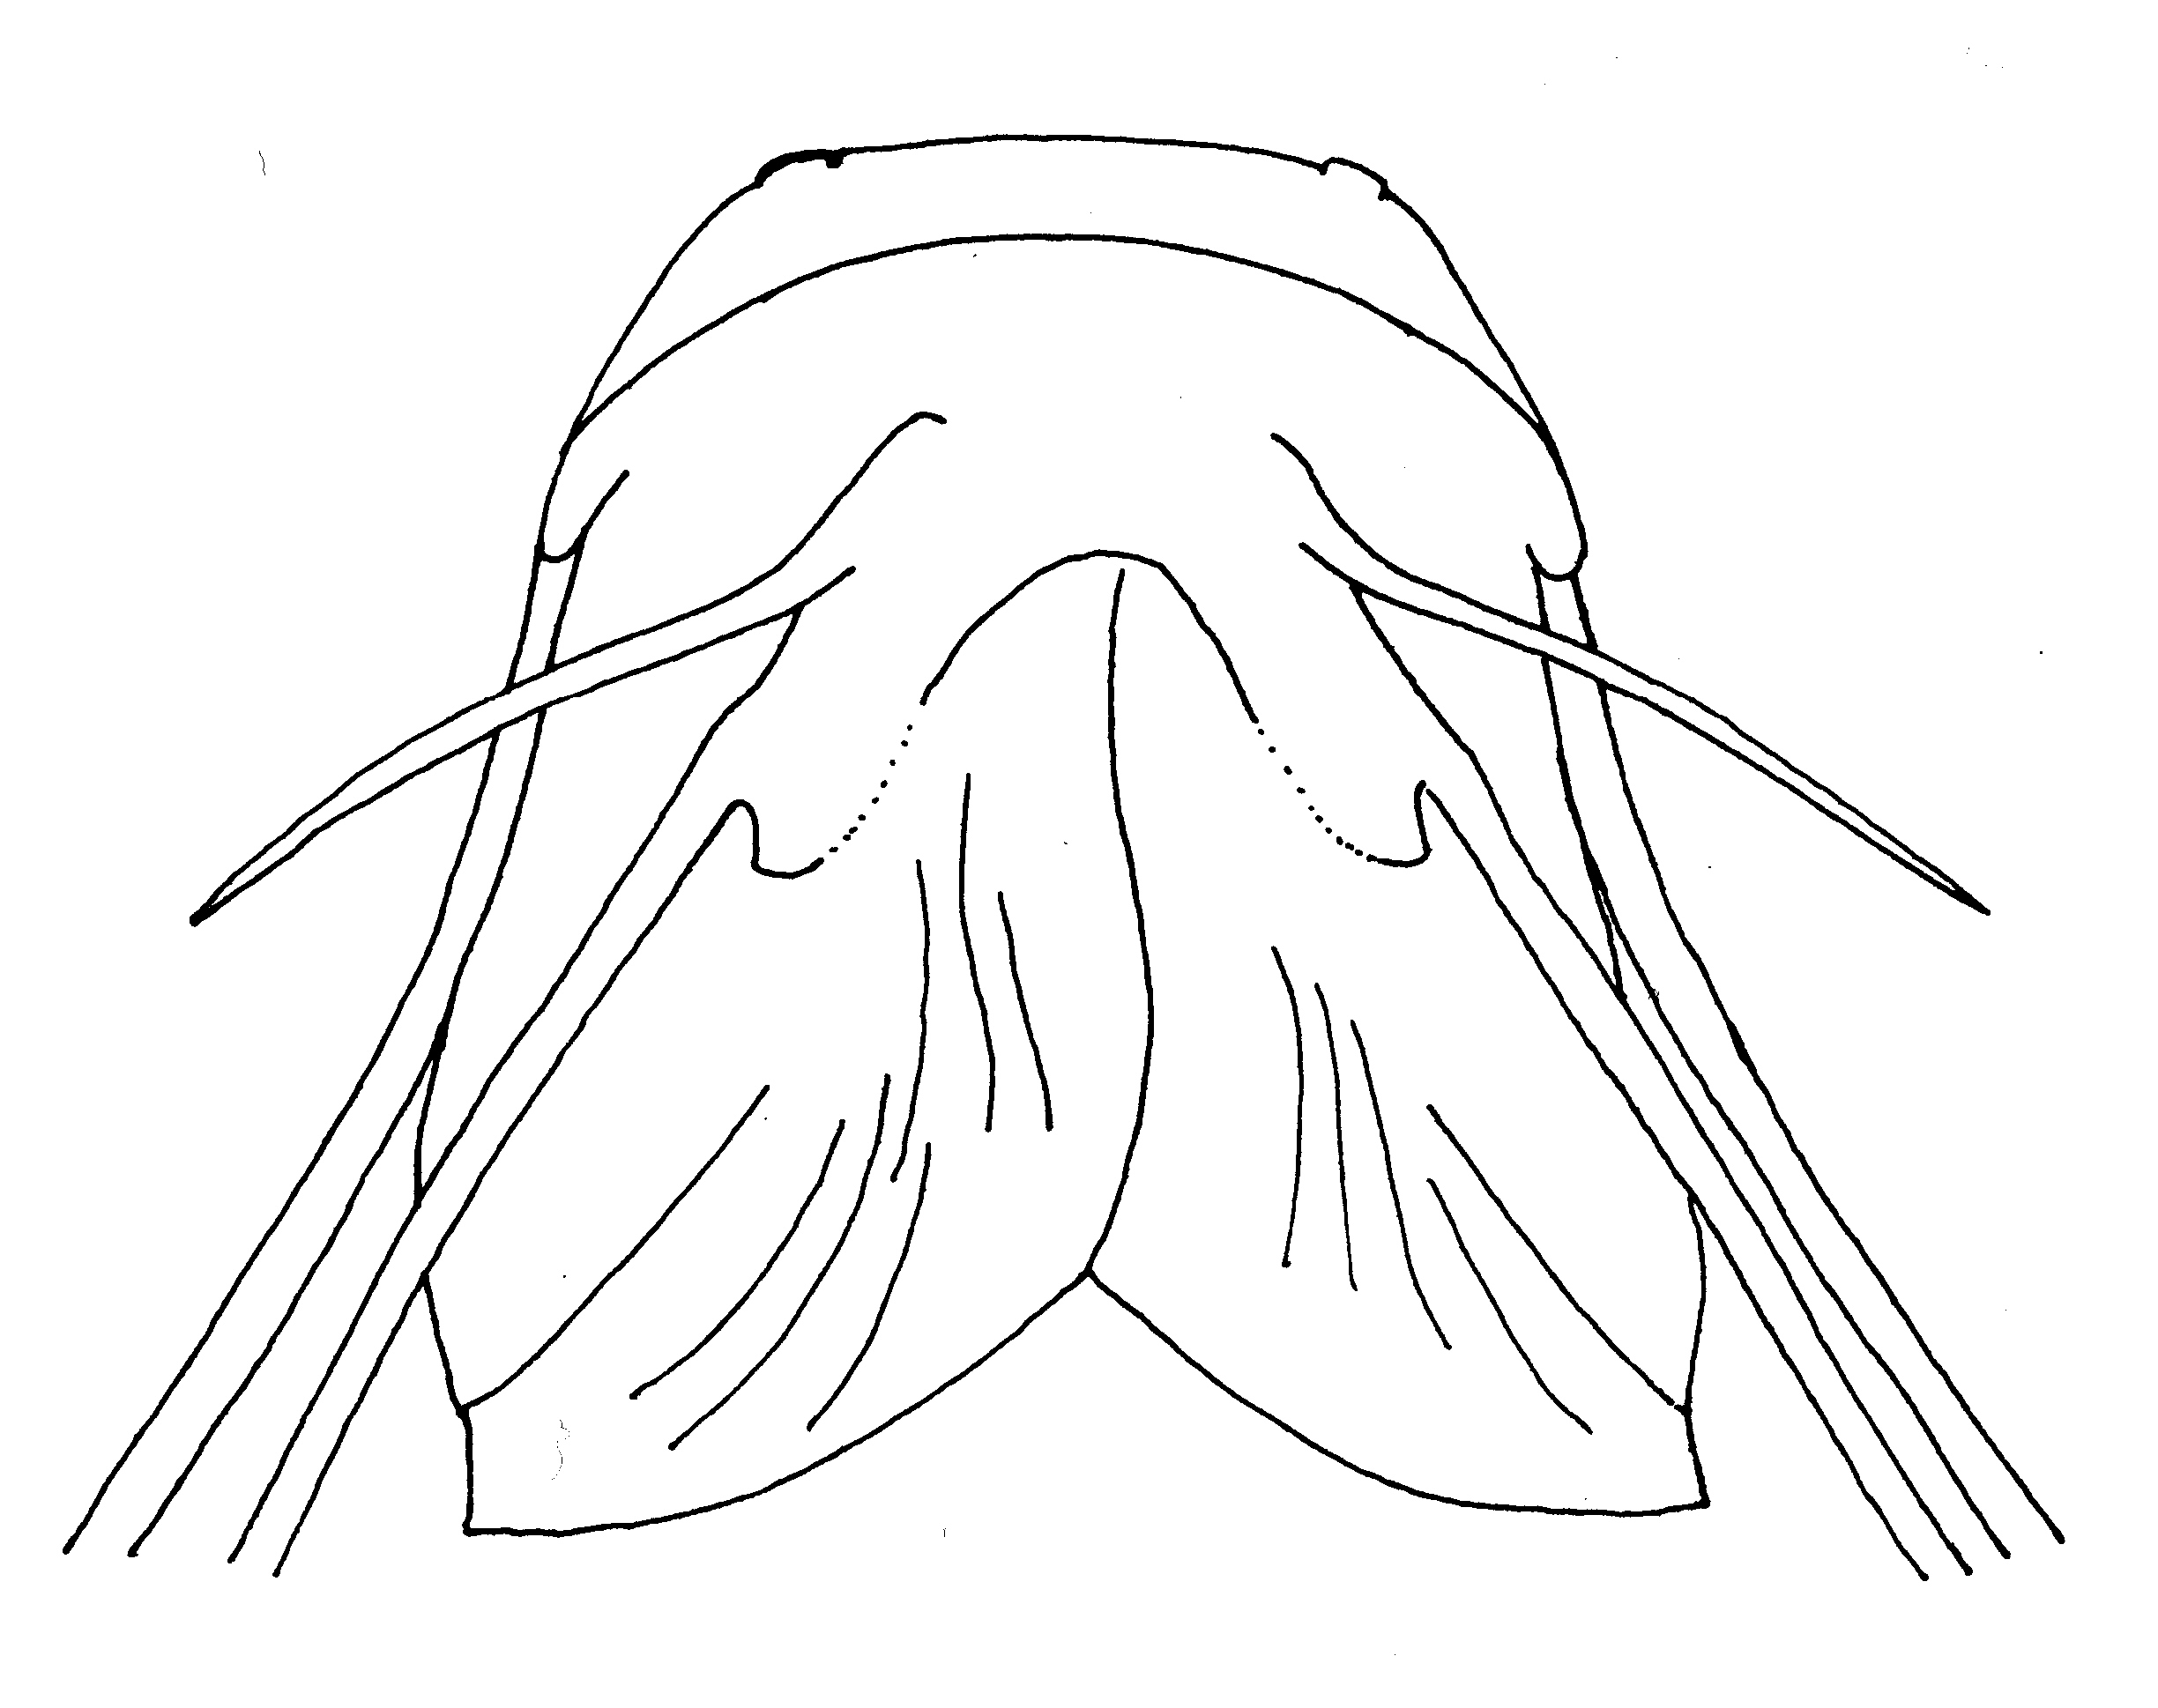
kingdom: Animalia
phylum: Chordata
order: Siluriformes
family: Claroteidae
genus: Phyllonemus
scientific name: Phyllonemus
